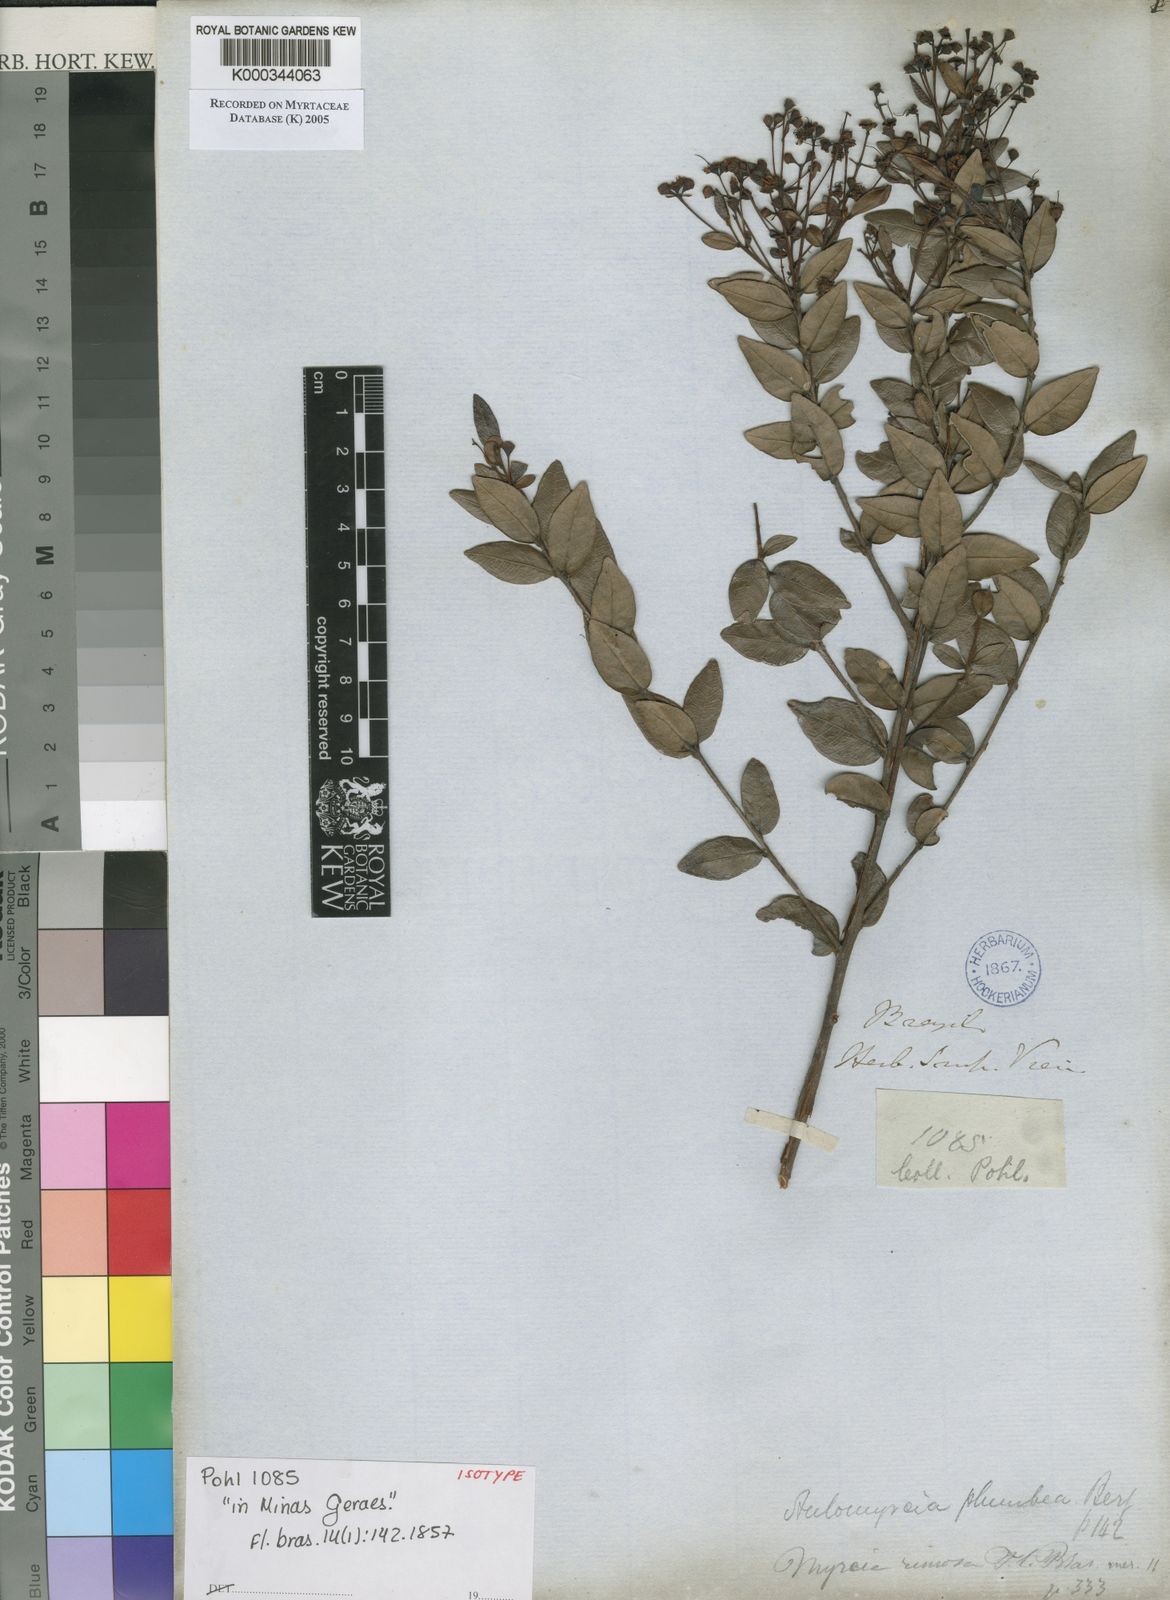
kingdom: Plantae
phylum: Tracheophyta
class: Magnoliopsida
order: Myrtales
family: Myrtaceae
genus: Myrcia
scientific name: Myrcia plumbea
